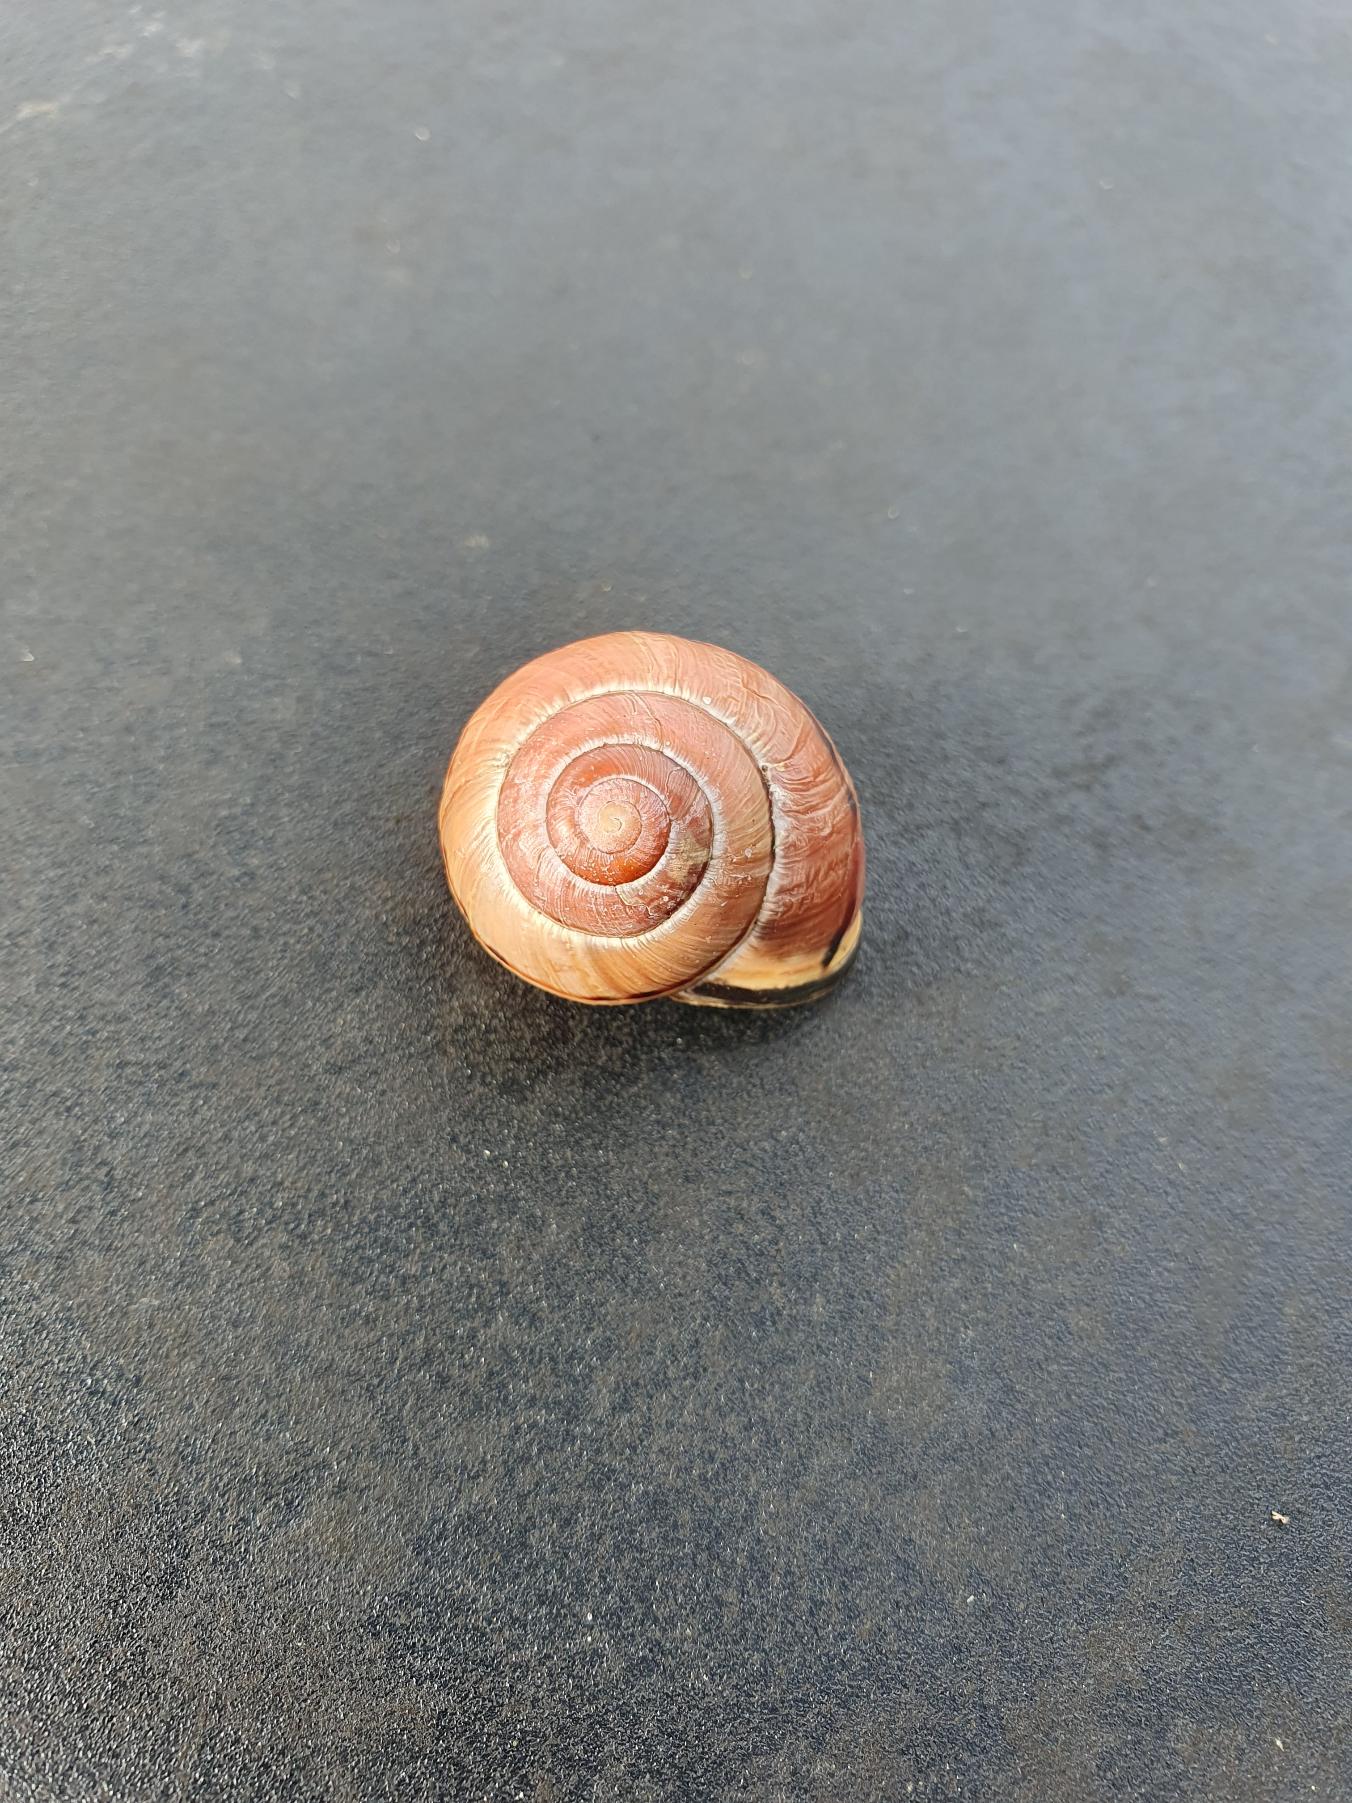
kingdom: Animalia
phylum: Mollusca
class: Gastropoda
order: Stylommatophora
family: Helicidae
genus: Cepaea
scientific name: Cepaea nemoralis
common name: Lundsnegl
